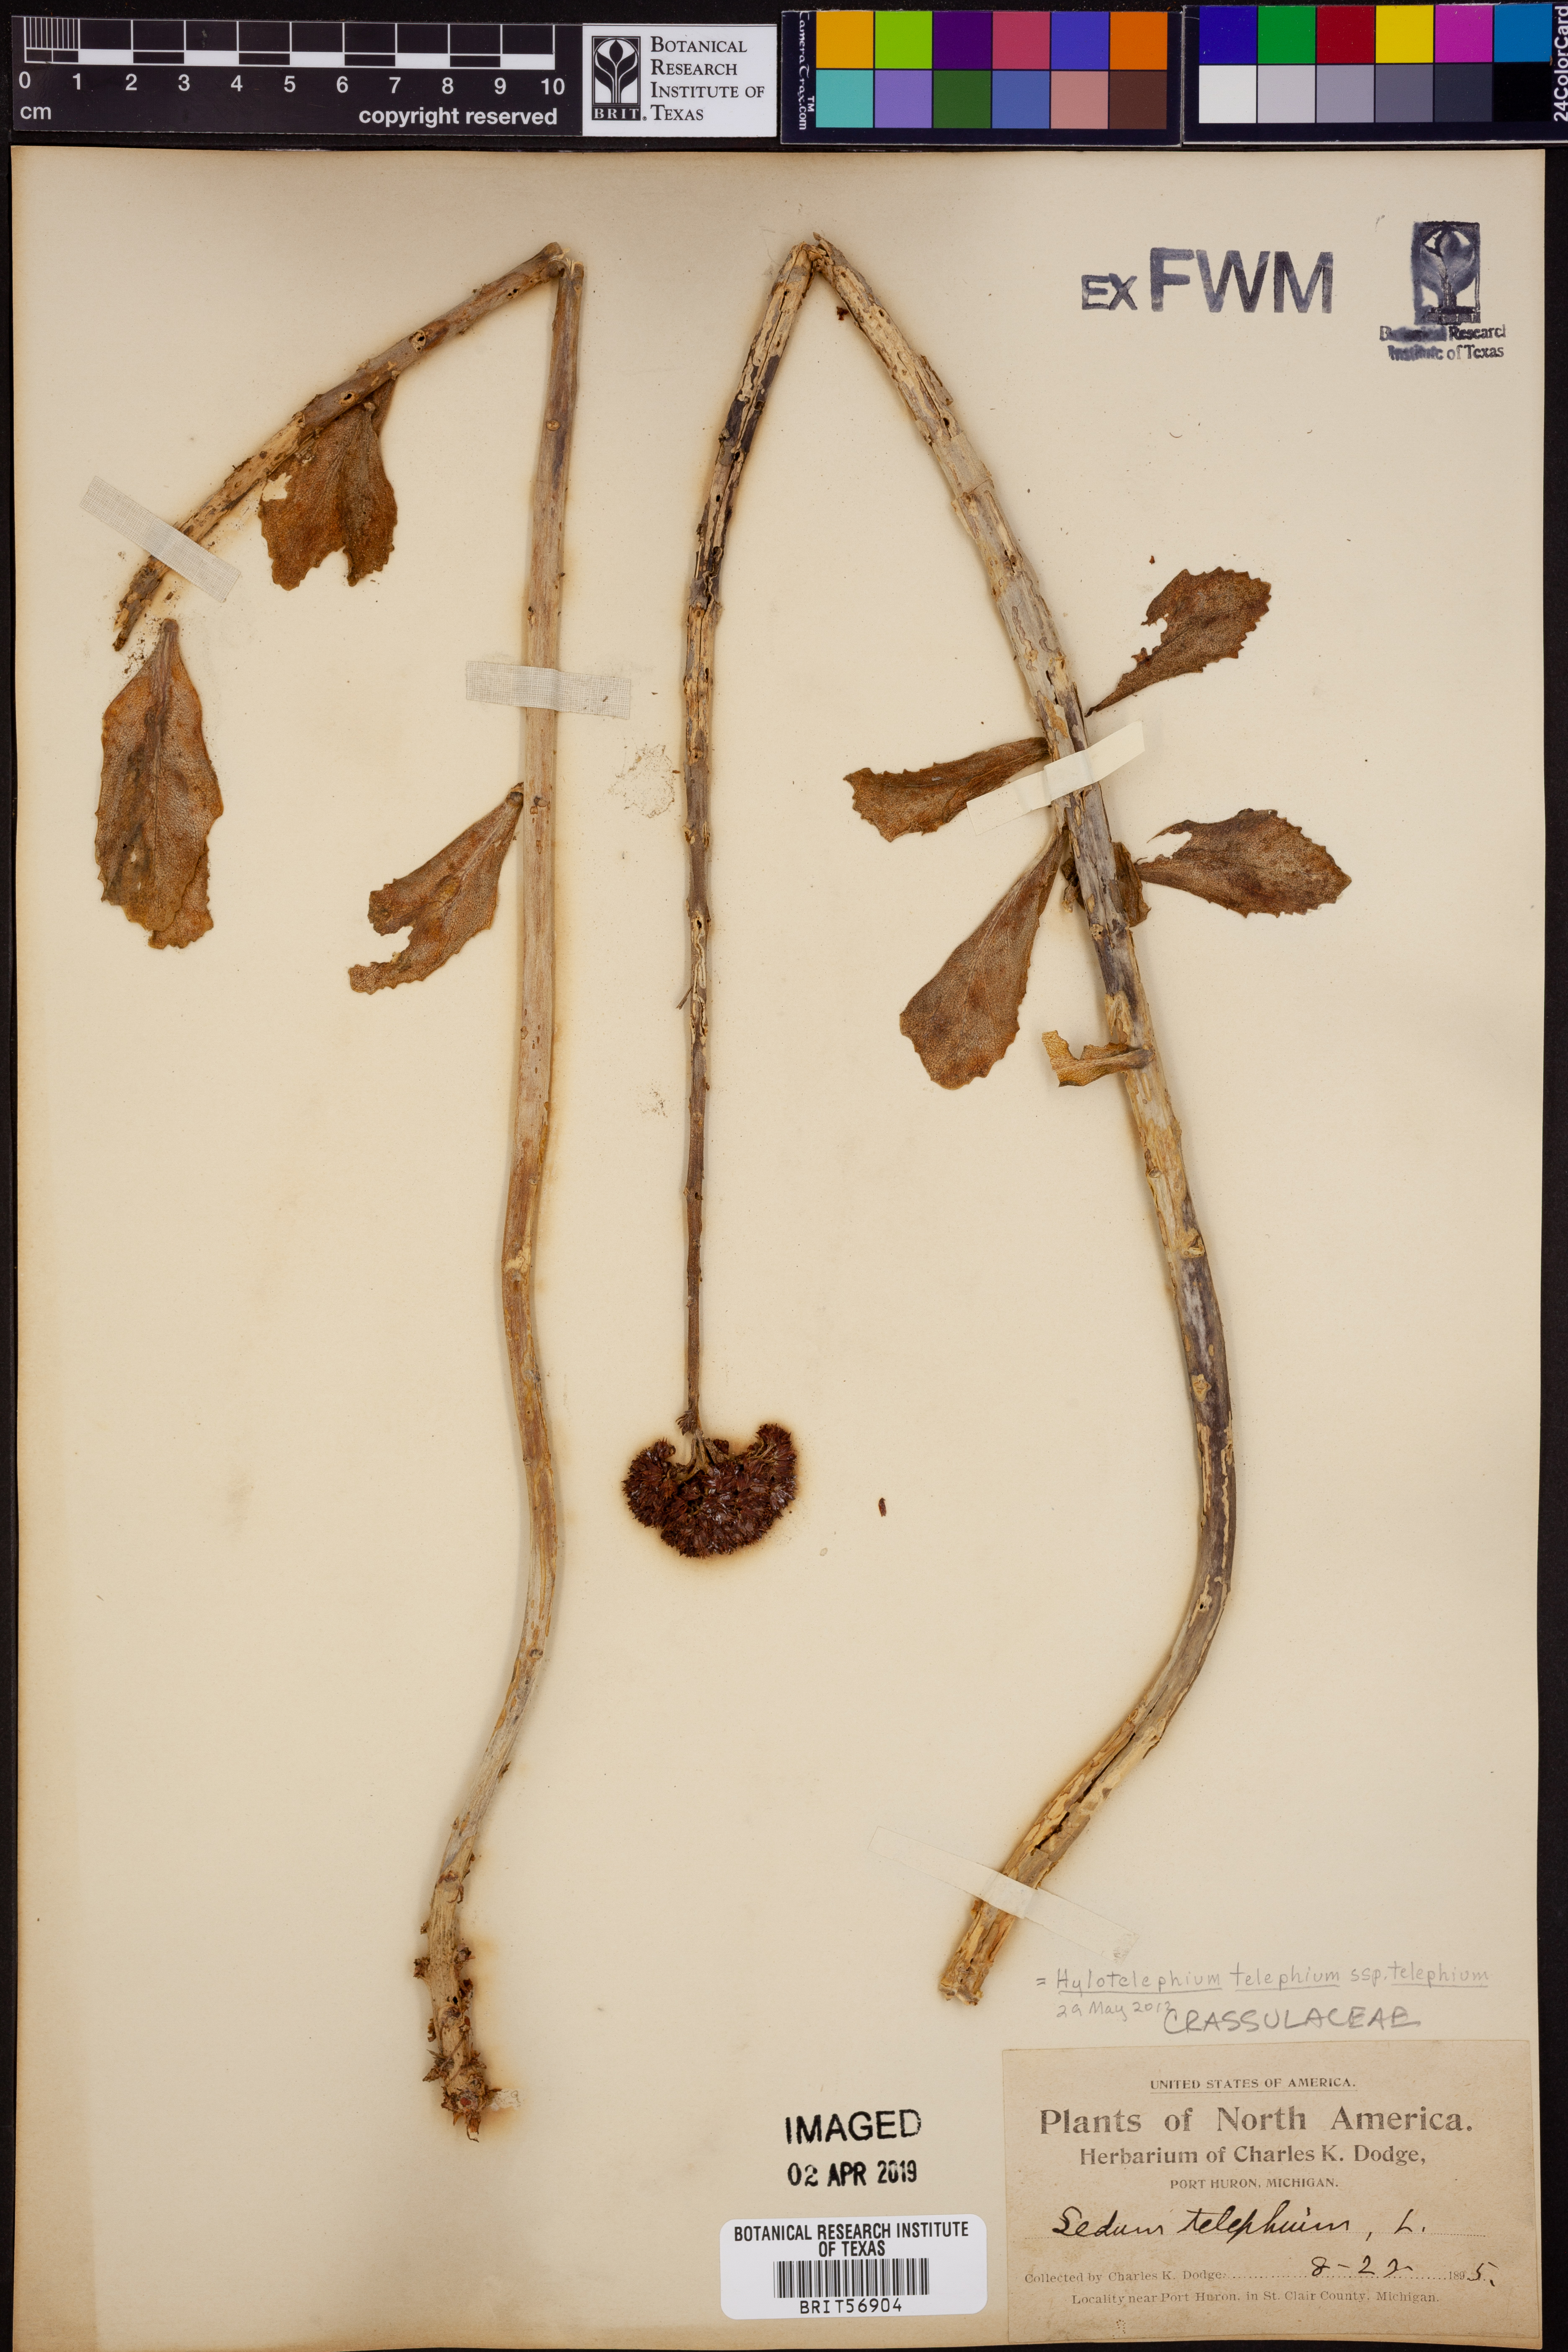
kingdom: Plantae
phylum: Tracheophyta
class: Magnoliopsida
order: Saxifragales
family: Crassulaceae
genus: Hylotelephium
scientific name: Hylotelephium telephium
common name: Live-forever
